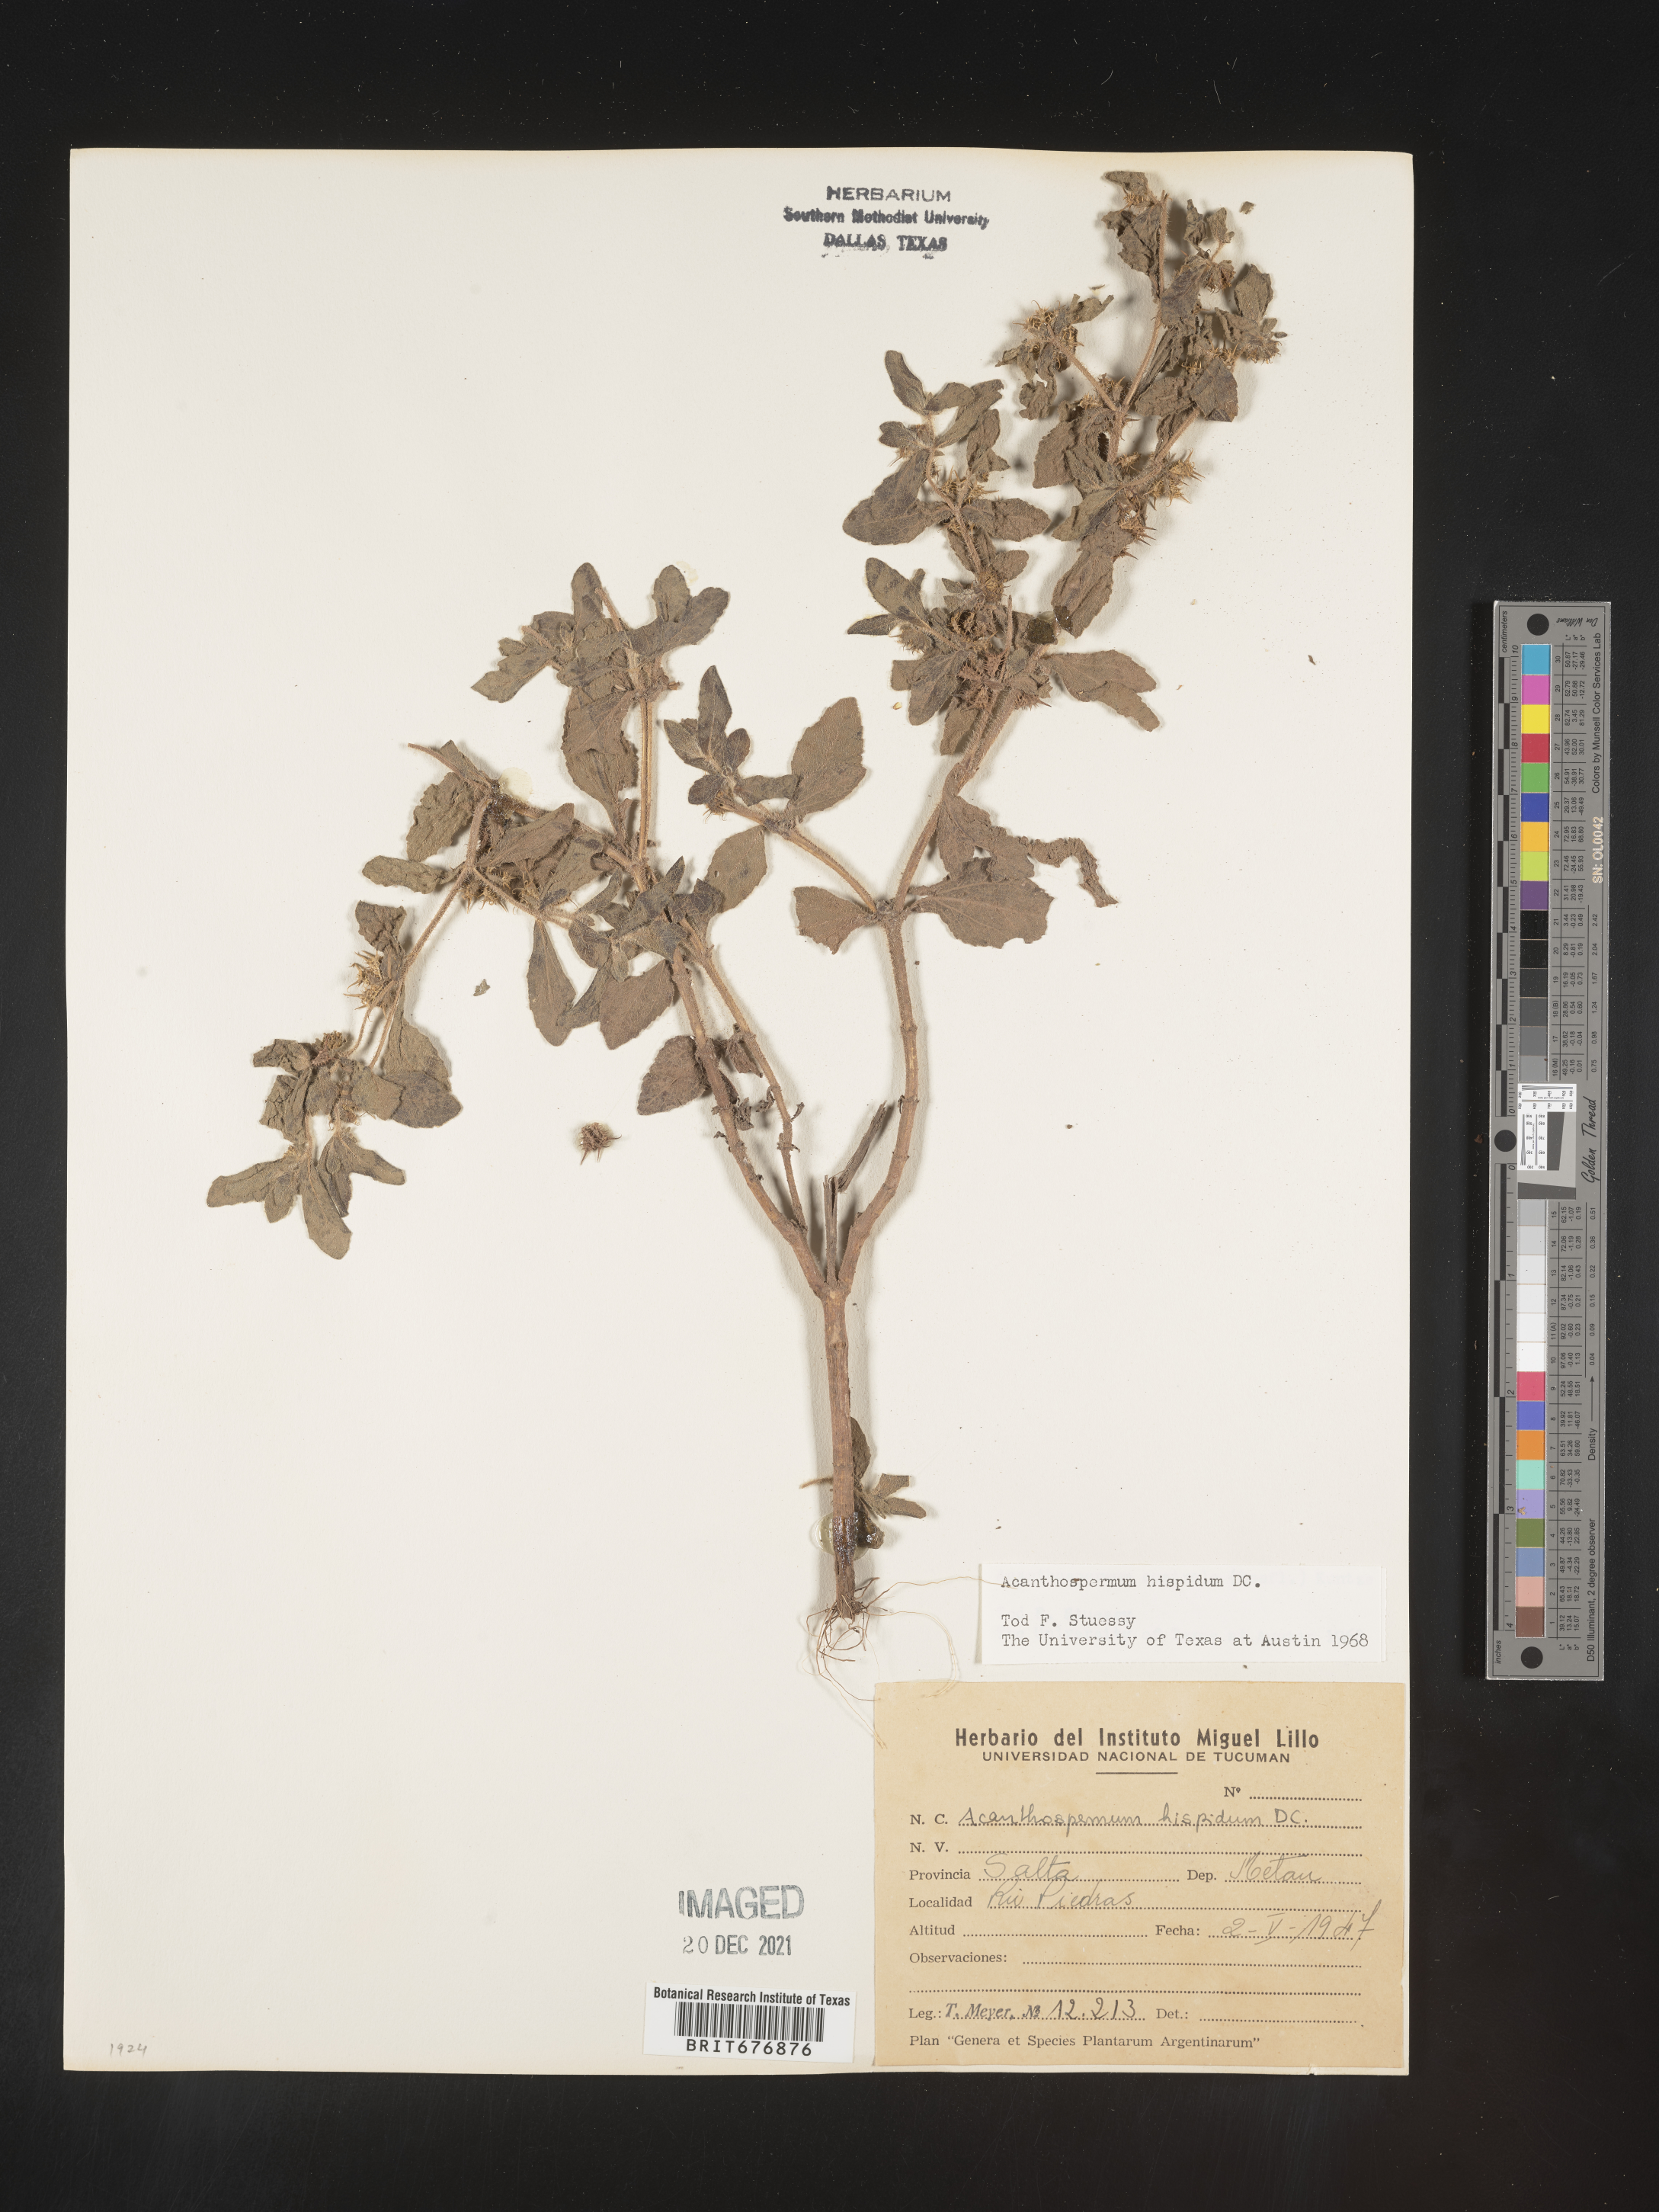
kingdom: Plantae
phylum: Tracheophyta
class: Magnoliopsida
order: Asterales
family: Asteraceae
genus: Acanthospermum
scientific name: Acanthospermum
